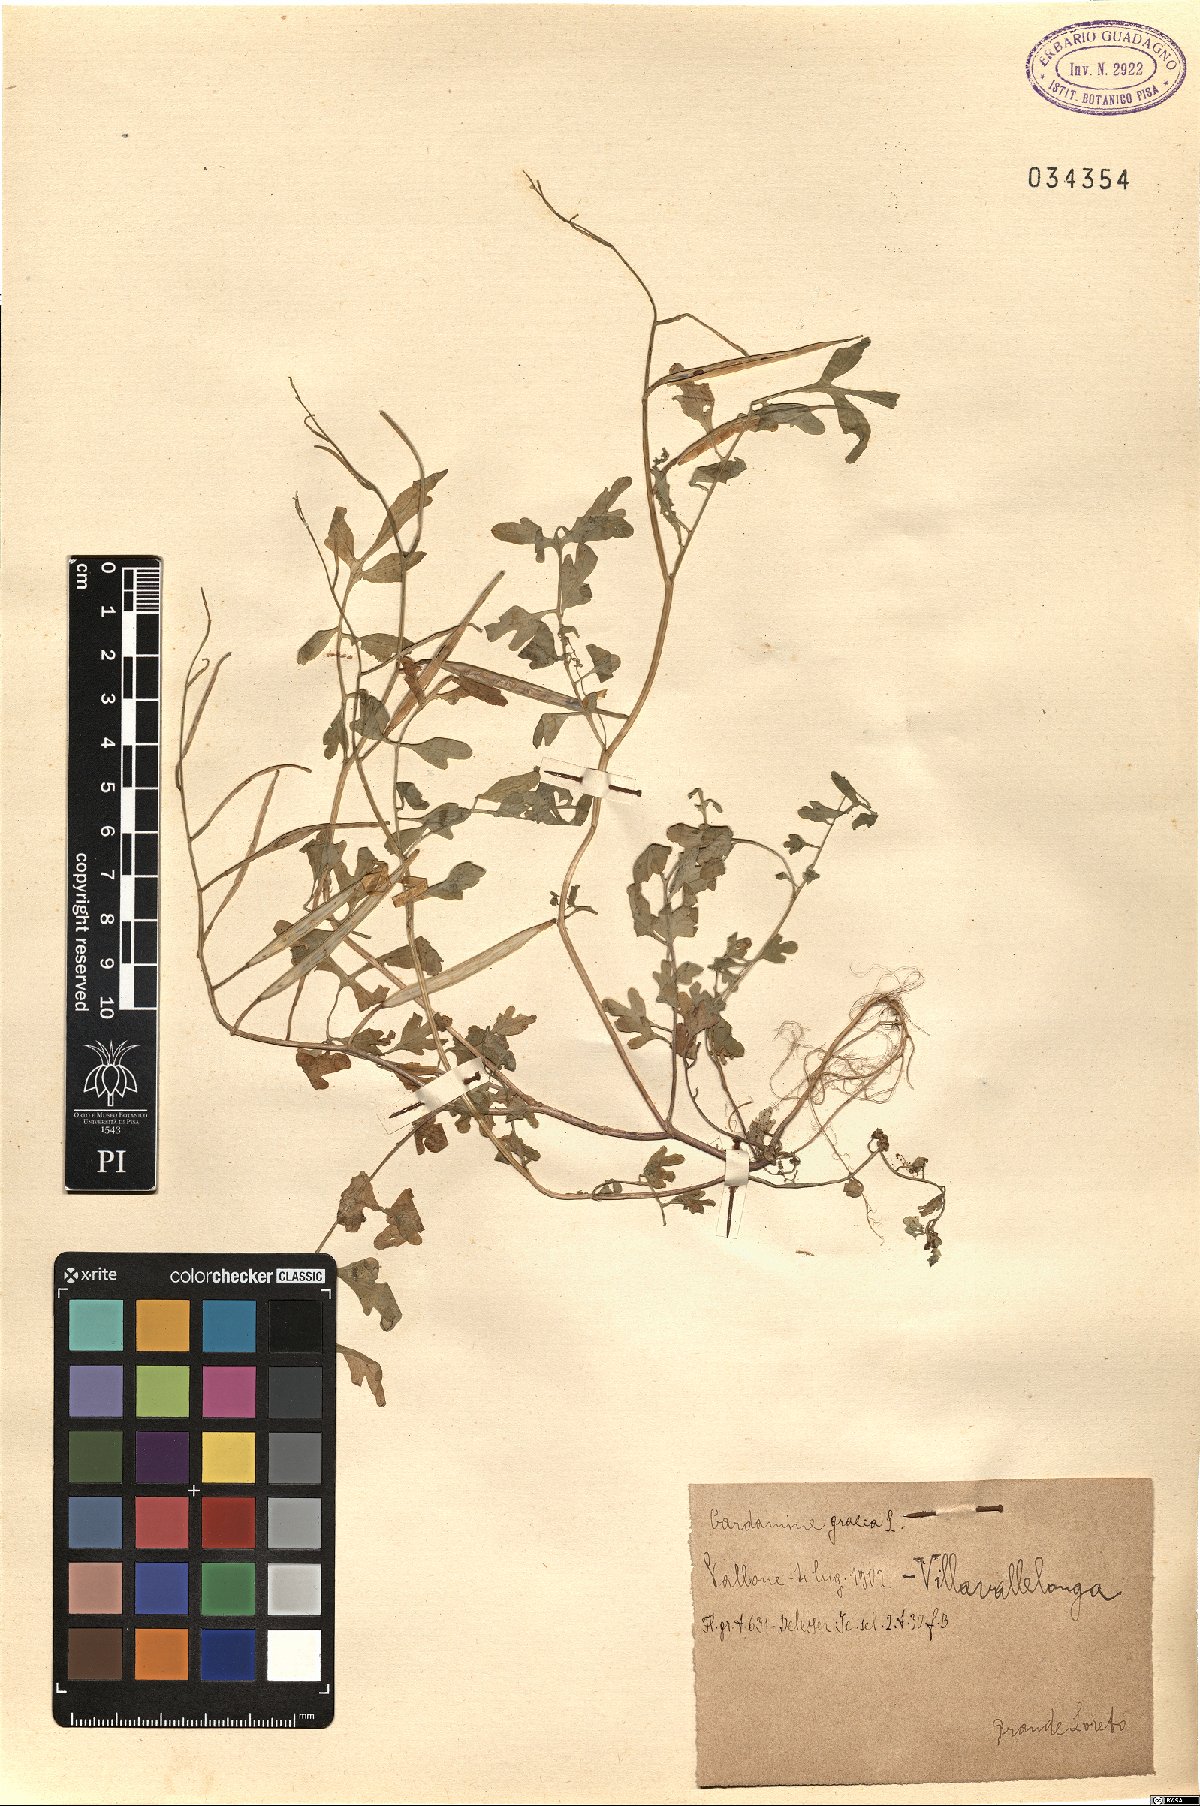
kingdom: Plantae
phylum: Tracheophyta
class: Magnoliopsida
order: Brassicales
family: Brassicaceae
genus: Cardamine
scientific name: Cardamine graeca
